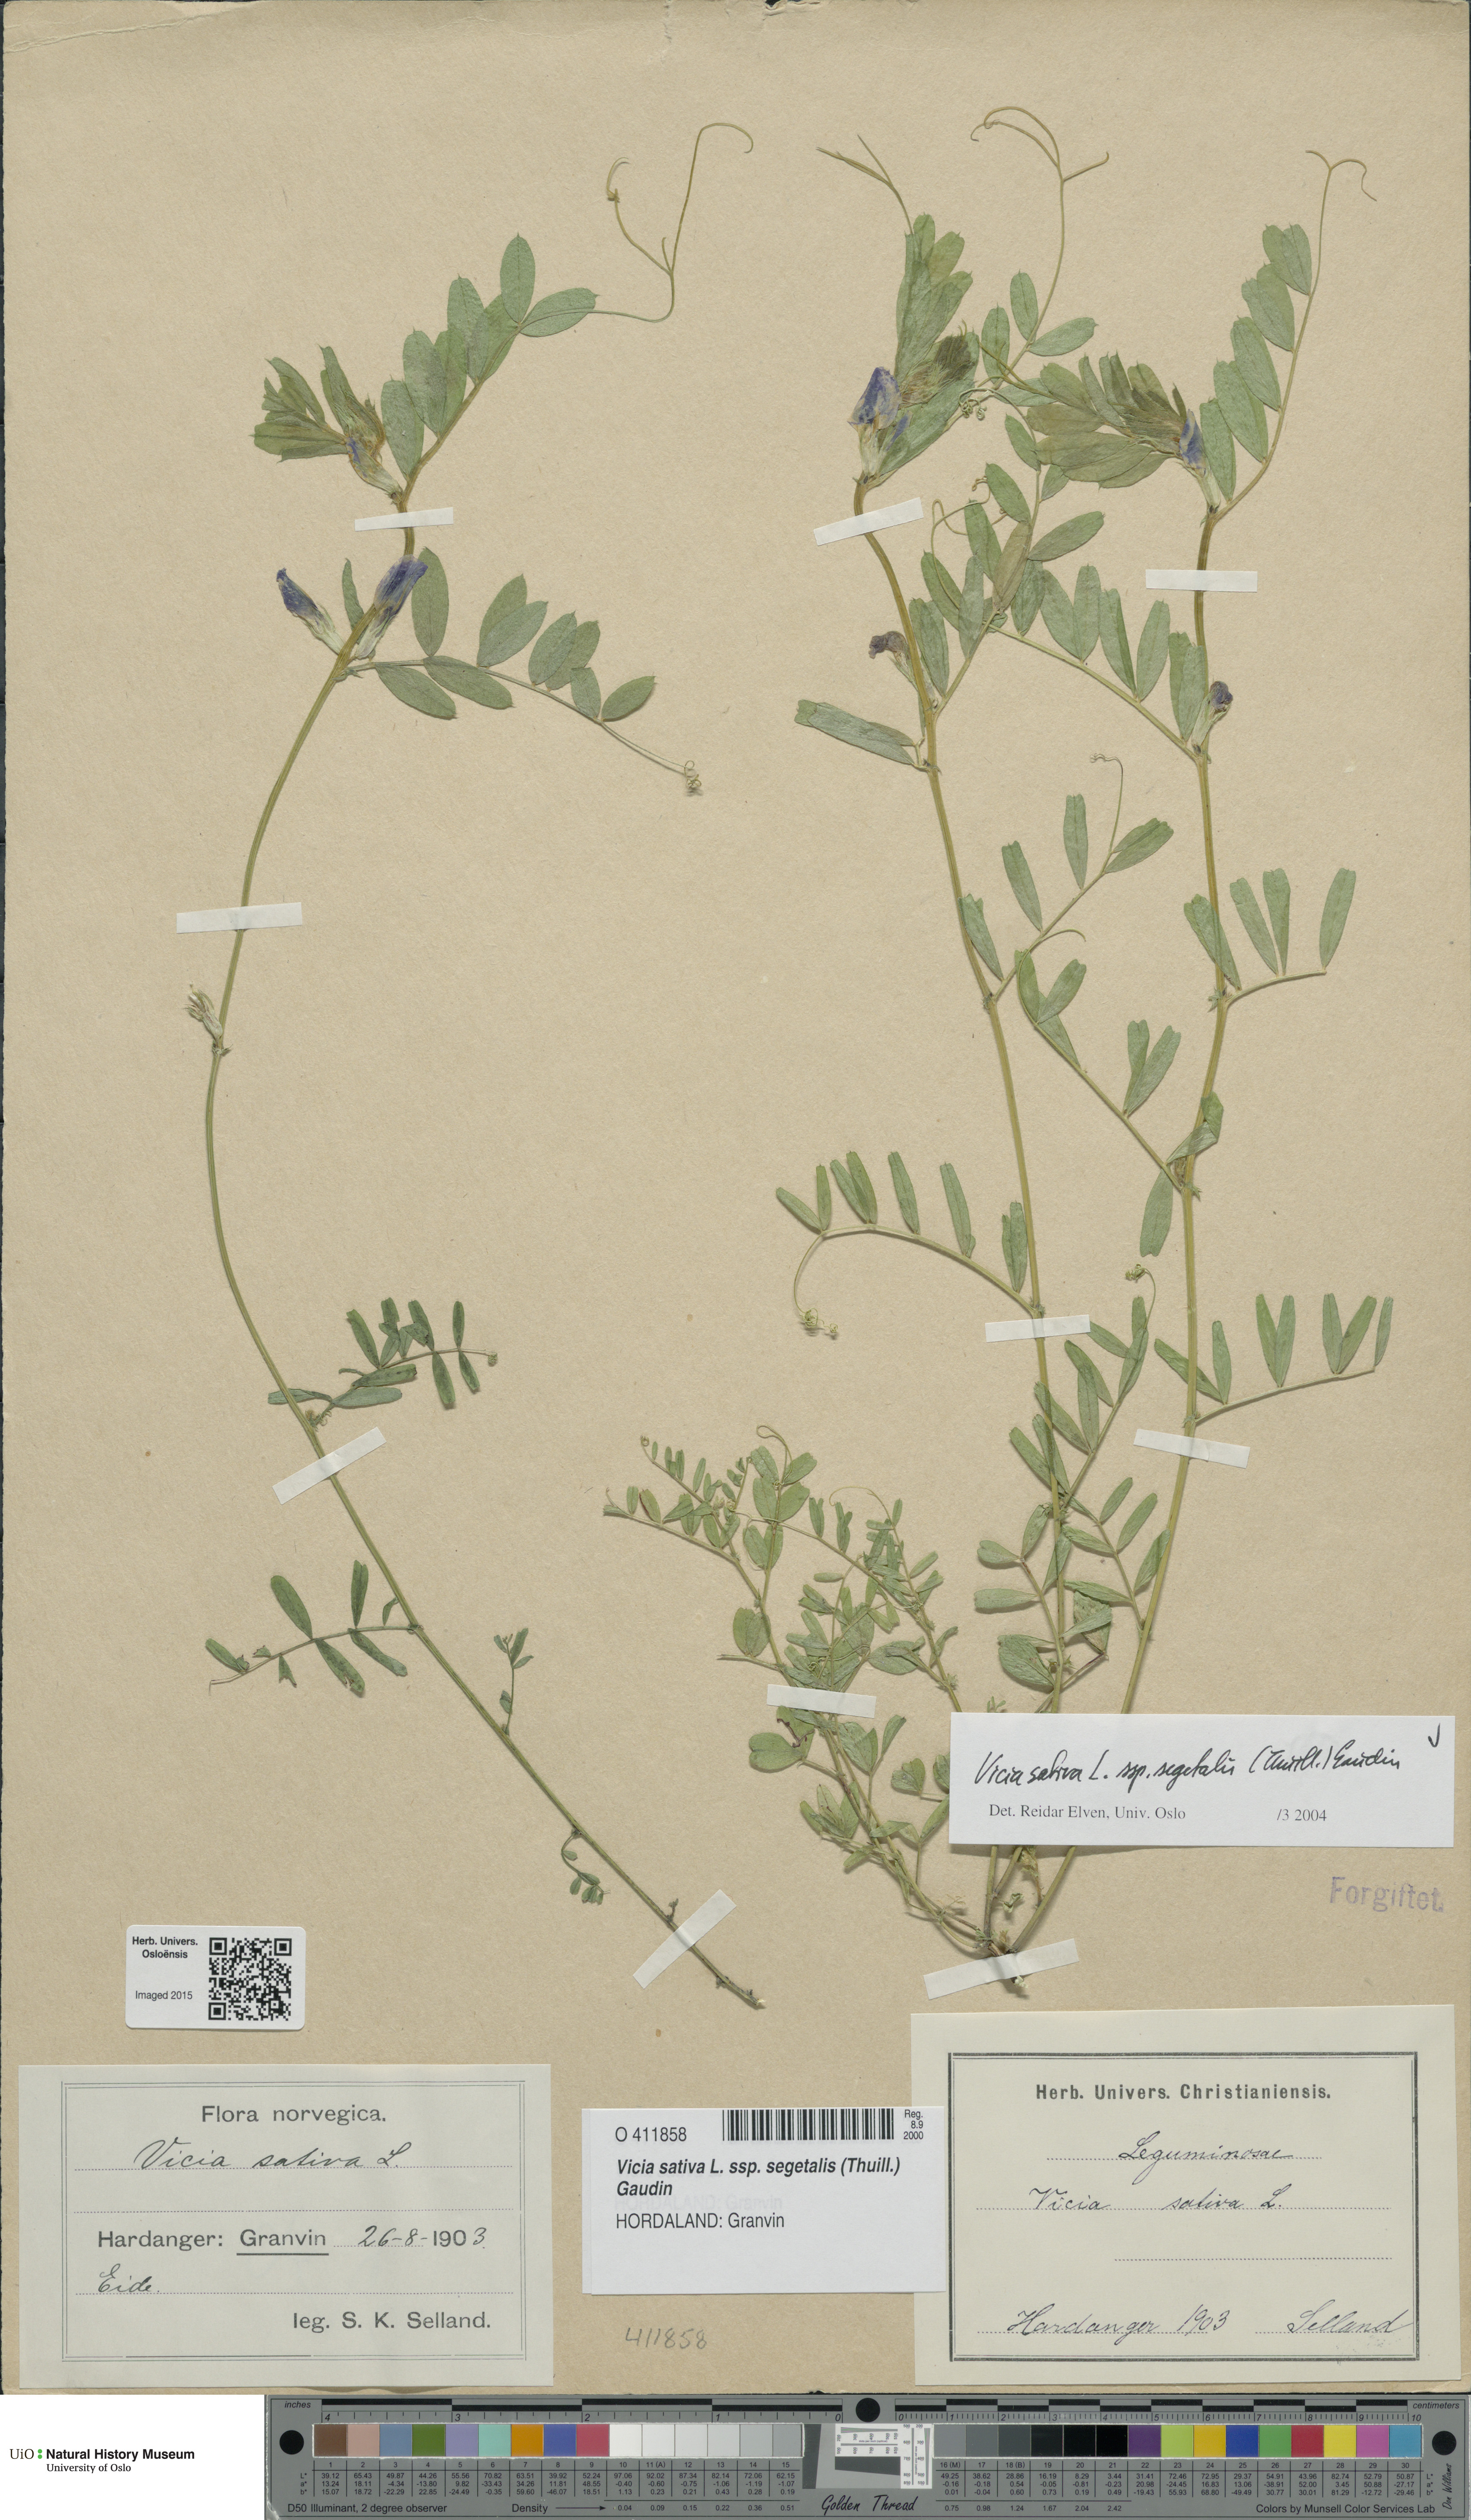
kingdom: Plantae
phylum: Tracheophyta
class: Magnoliopsida
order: Fabales
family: Fabaceae
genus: Vicia
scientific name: Vicia sativa
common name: Garden vetch
